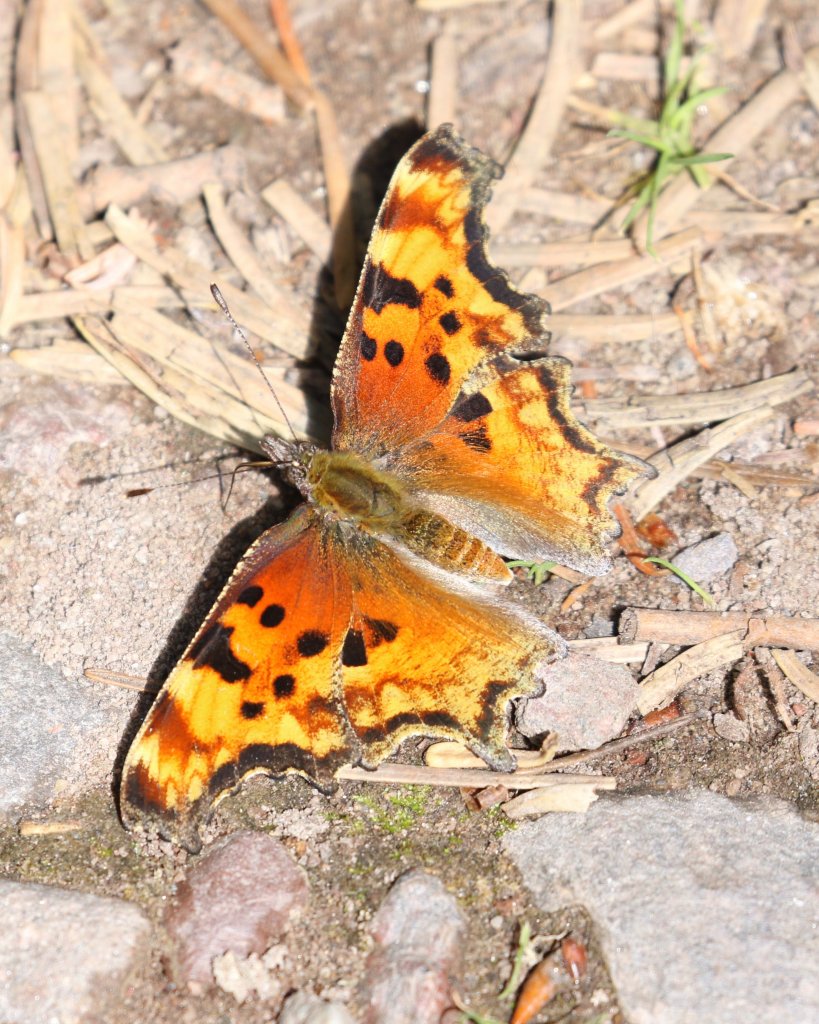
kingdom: Animalia
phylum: Arthropoda
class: Insecta
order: Lepidoptera
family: Nymphalidae
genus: Polygonia
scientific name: Polygonia faunus
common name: Green Comma
